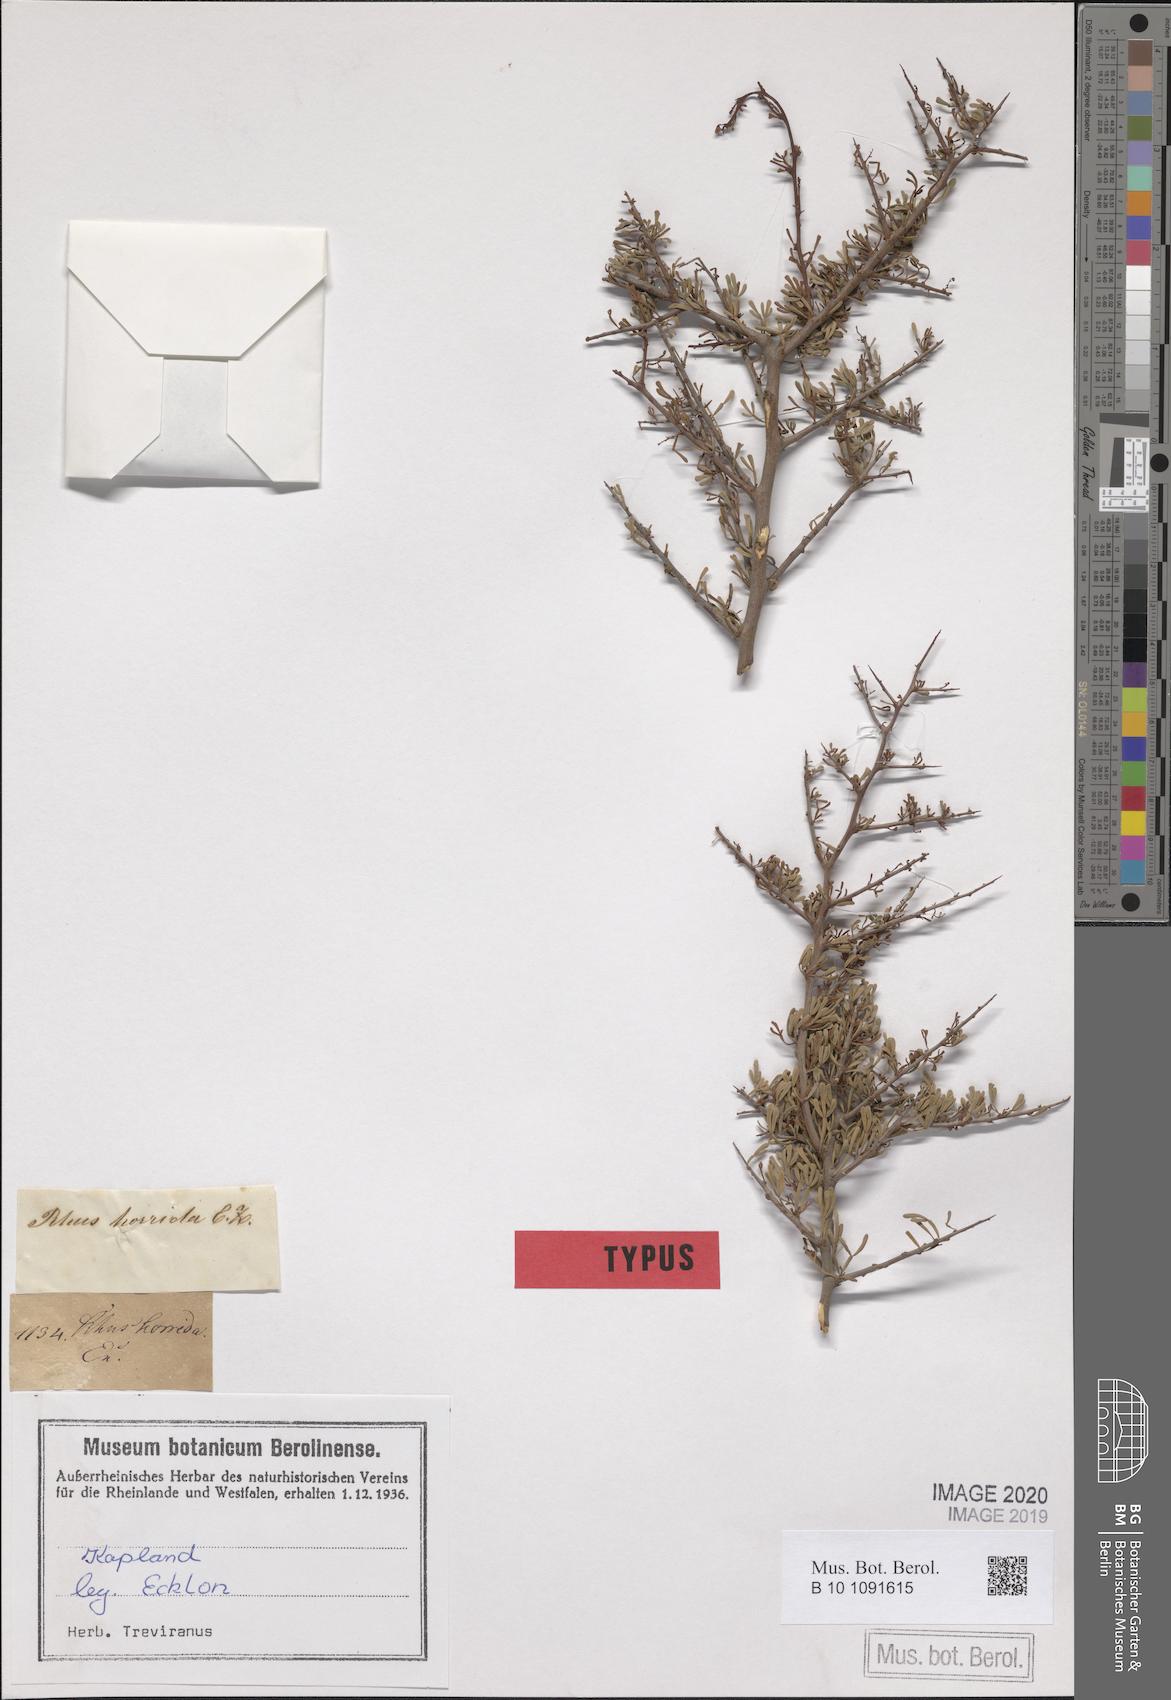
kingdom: Plantae
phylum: Tracheophyta
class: Magnoliopsida
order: Sapindales
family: Anacardiaceae
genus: Searsia
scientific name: Searsia horrida
